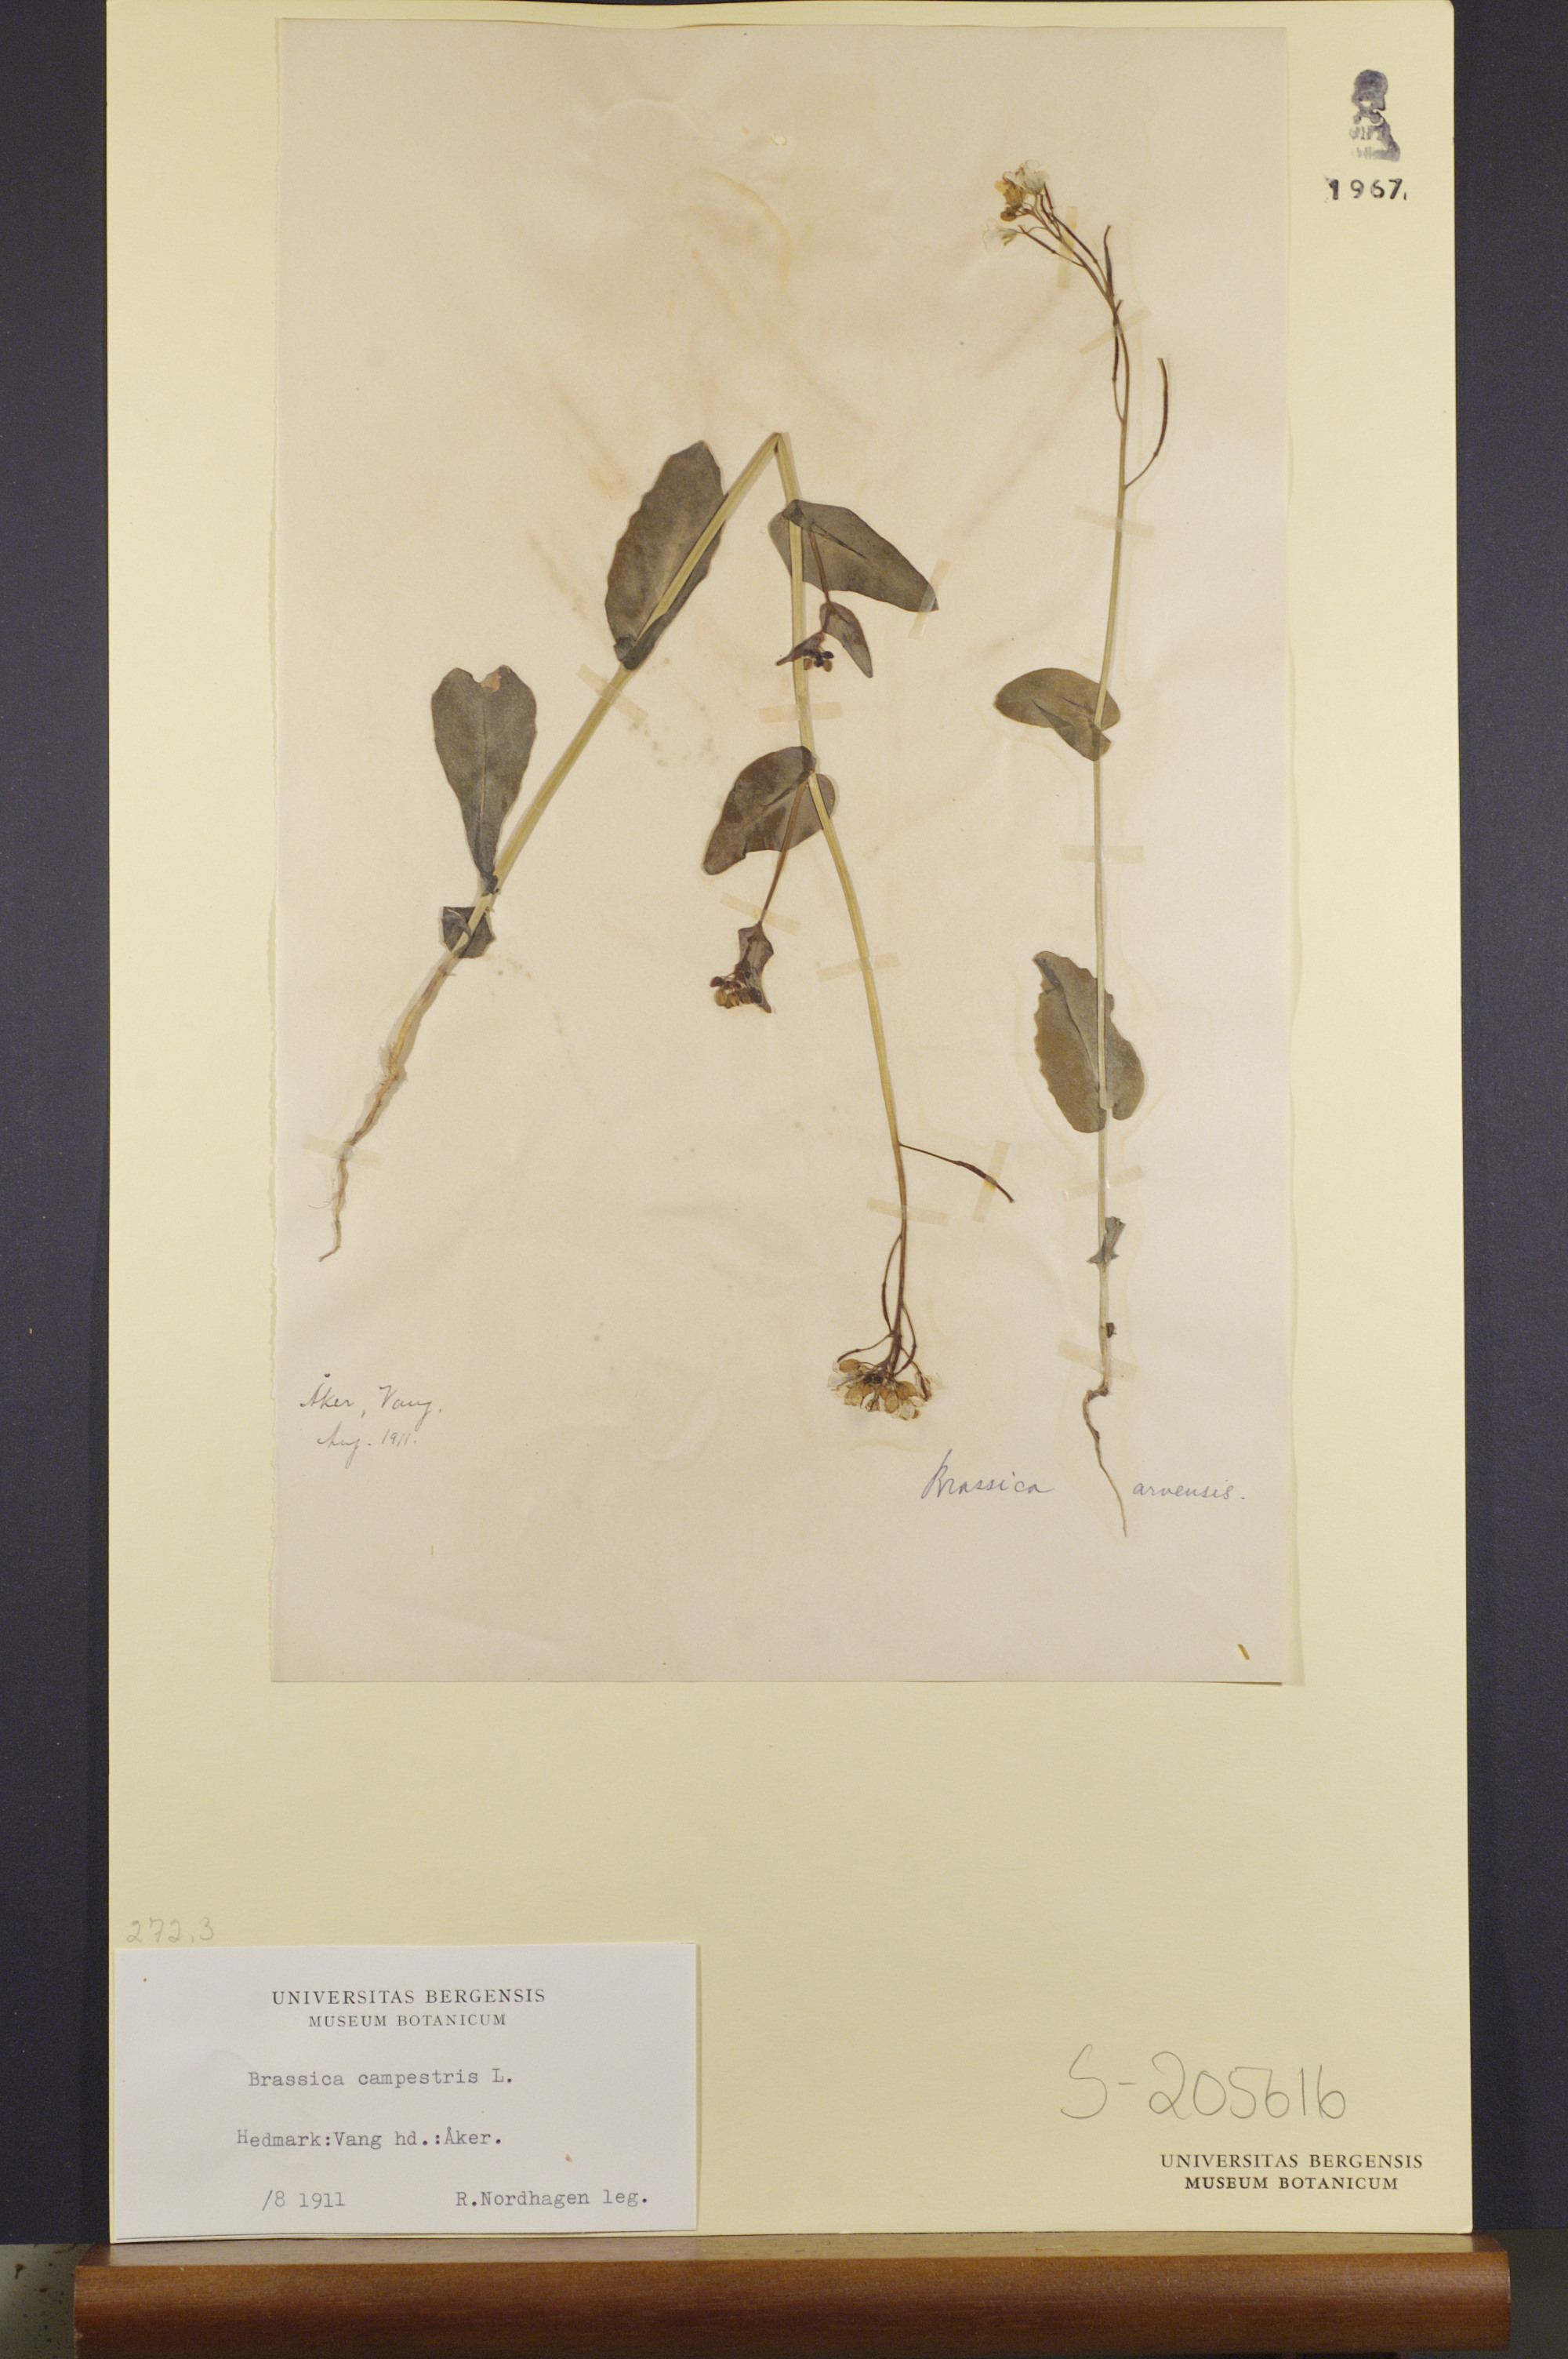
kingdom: Plantae
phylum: Tracheophyta
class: Magnoliopsida
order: Brassicales
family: Brassicaceae
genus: Brassica
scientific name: Brassica rapa
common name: Field mustard
